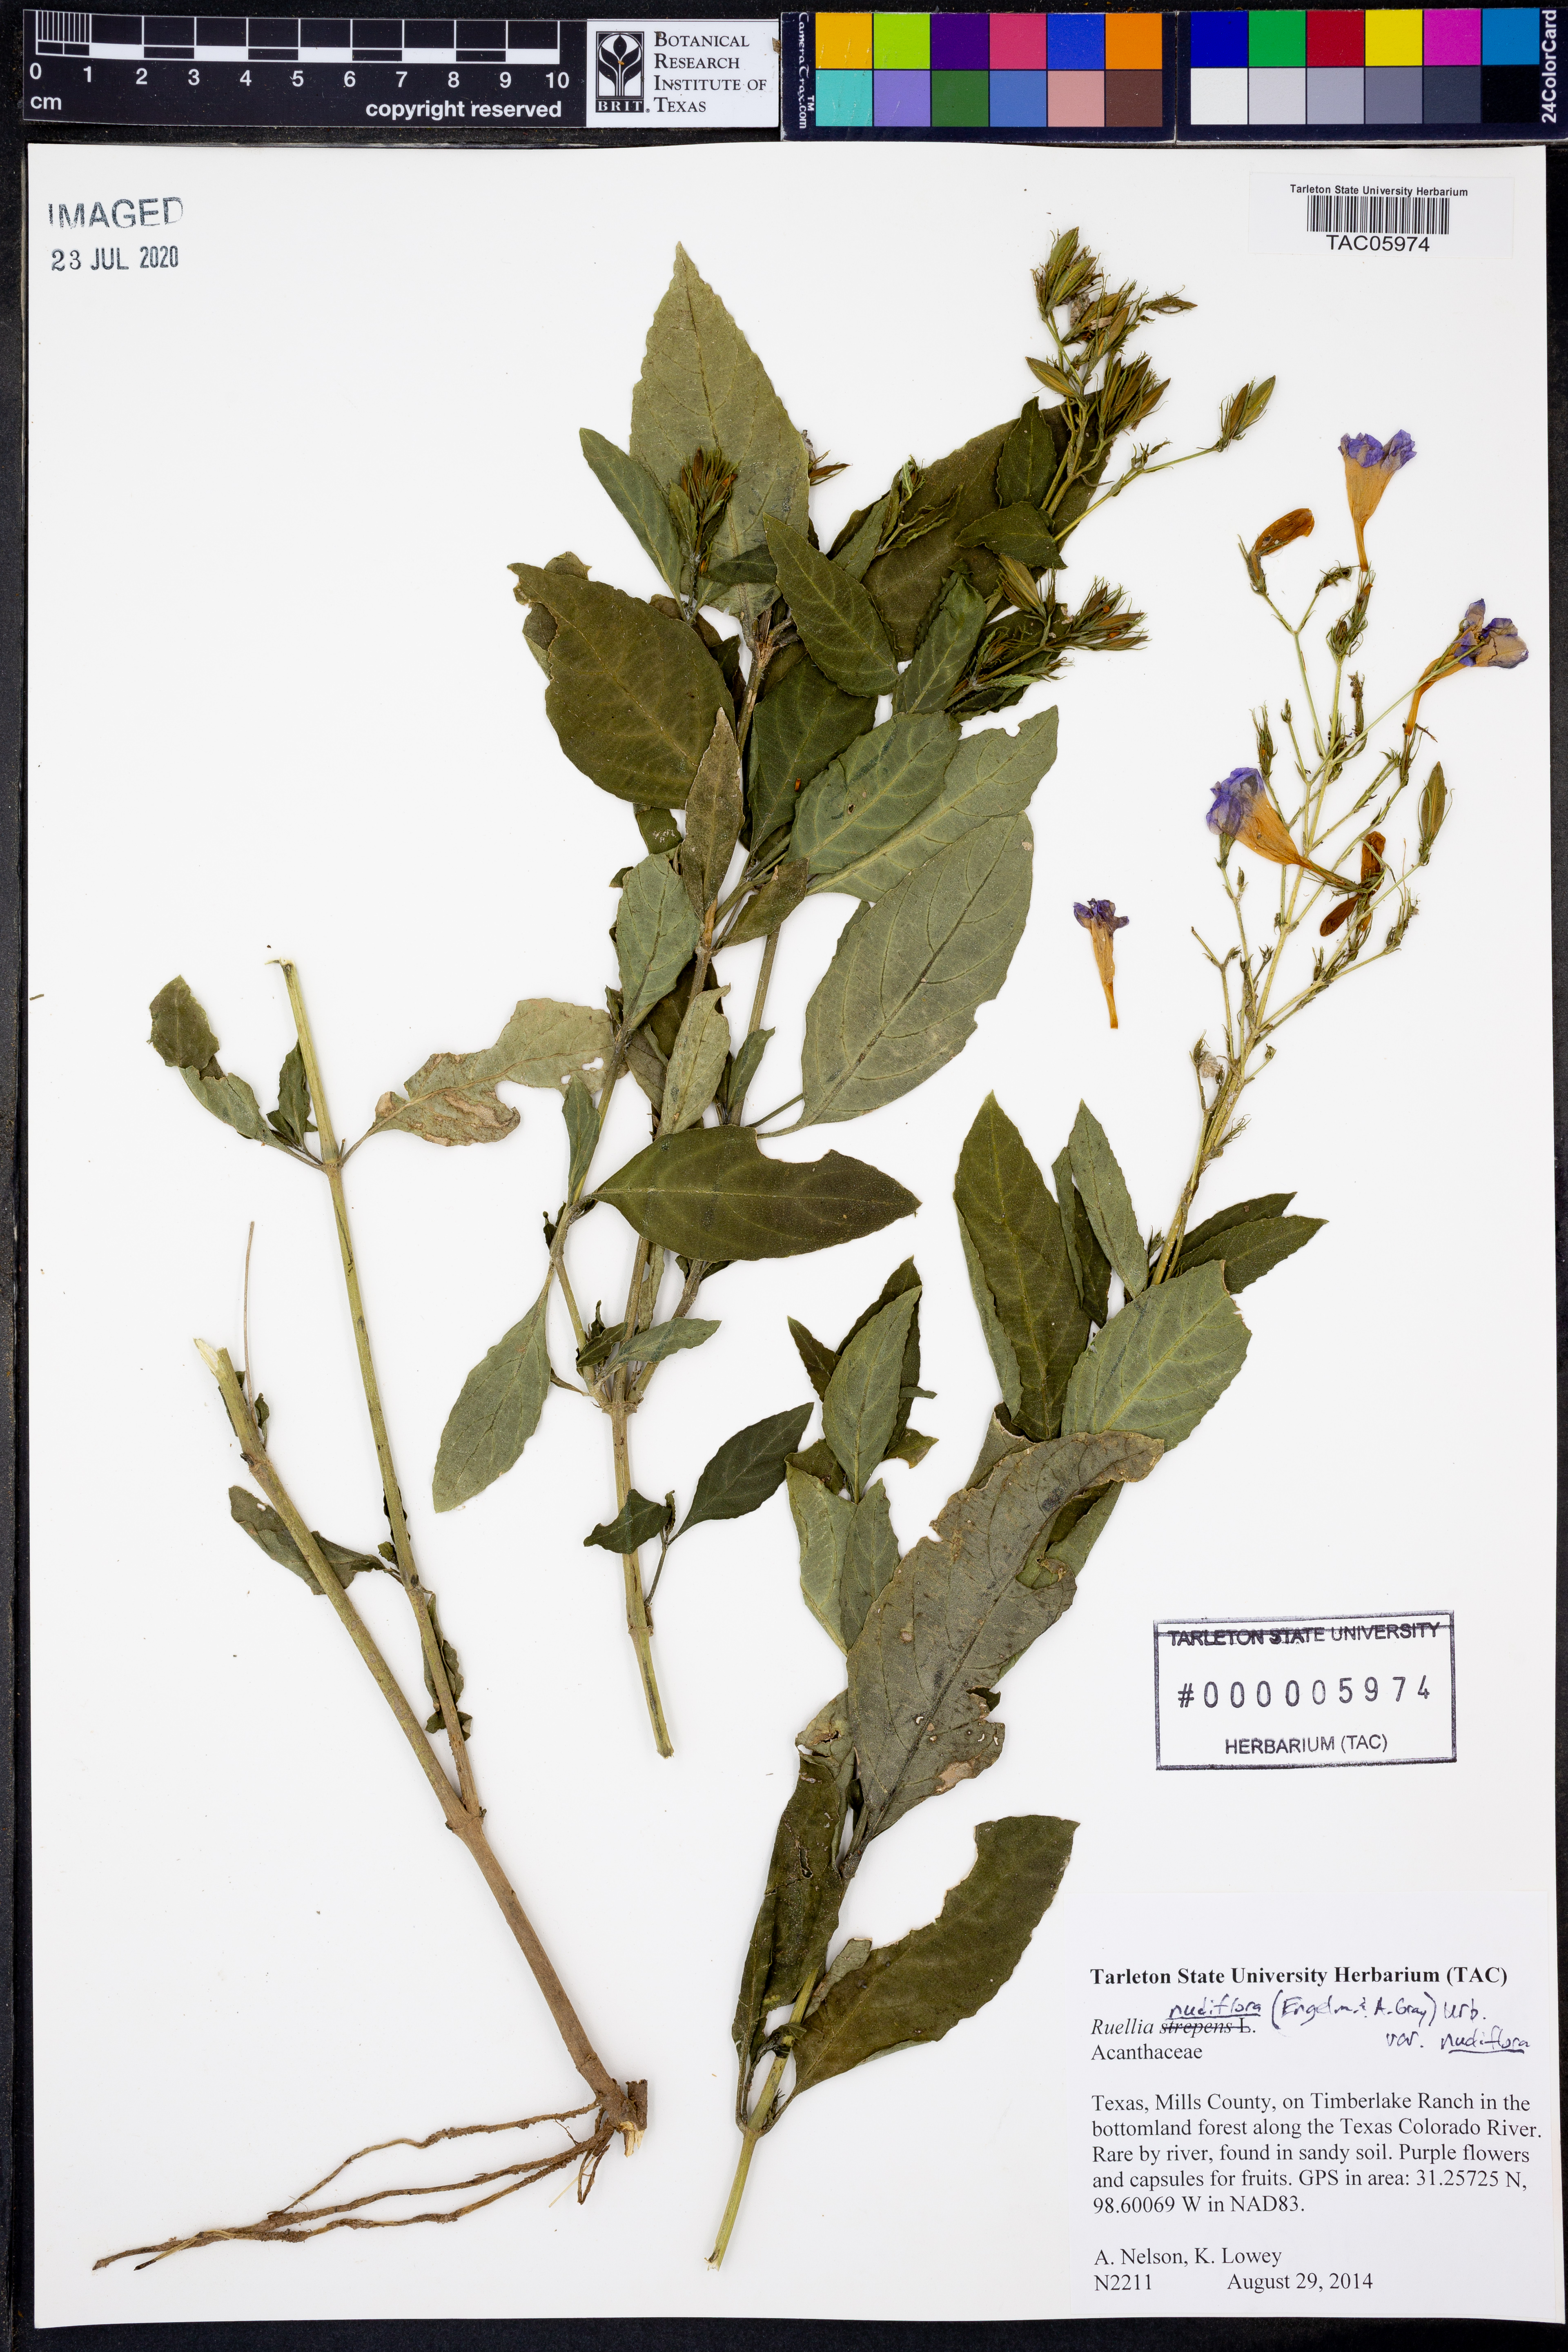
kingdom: Plantae
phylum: Tracheophyta
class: Magnoliopsida
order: Lamiales
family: Acanthaceae
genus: Ruellia
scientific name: Ruellia ciliatiflora
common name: Hairyflower wild petunia
